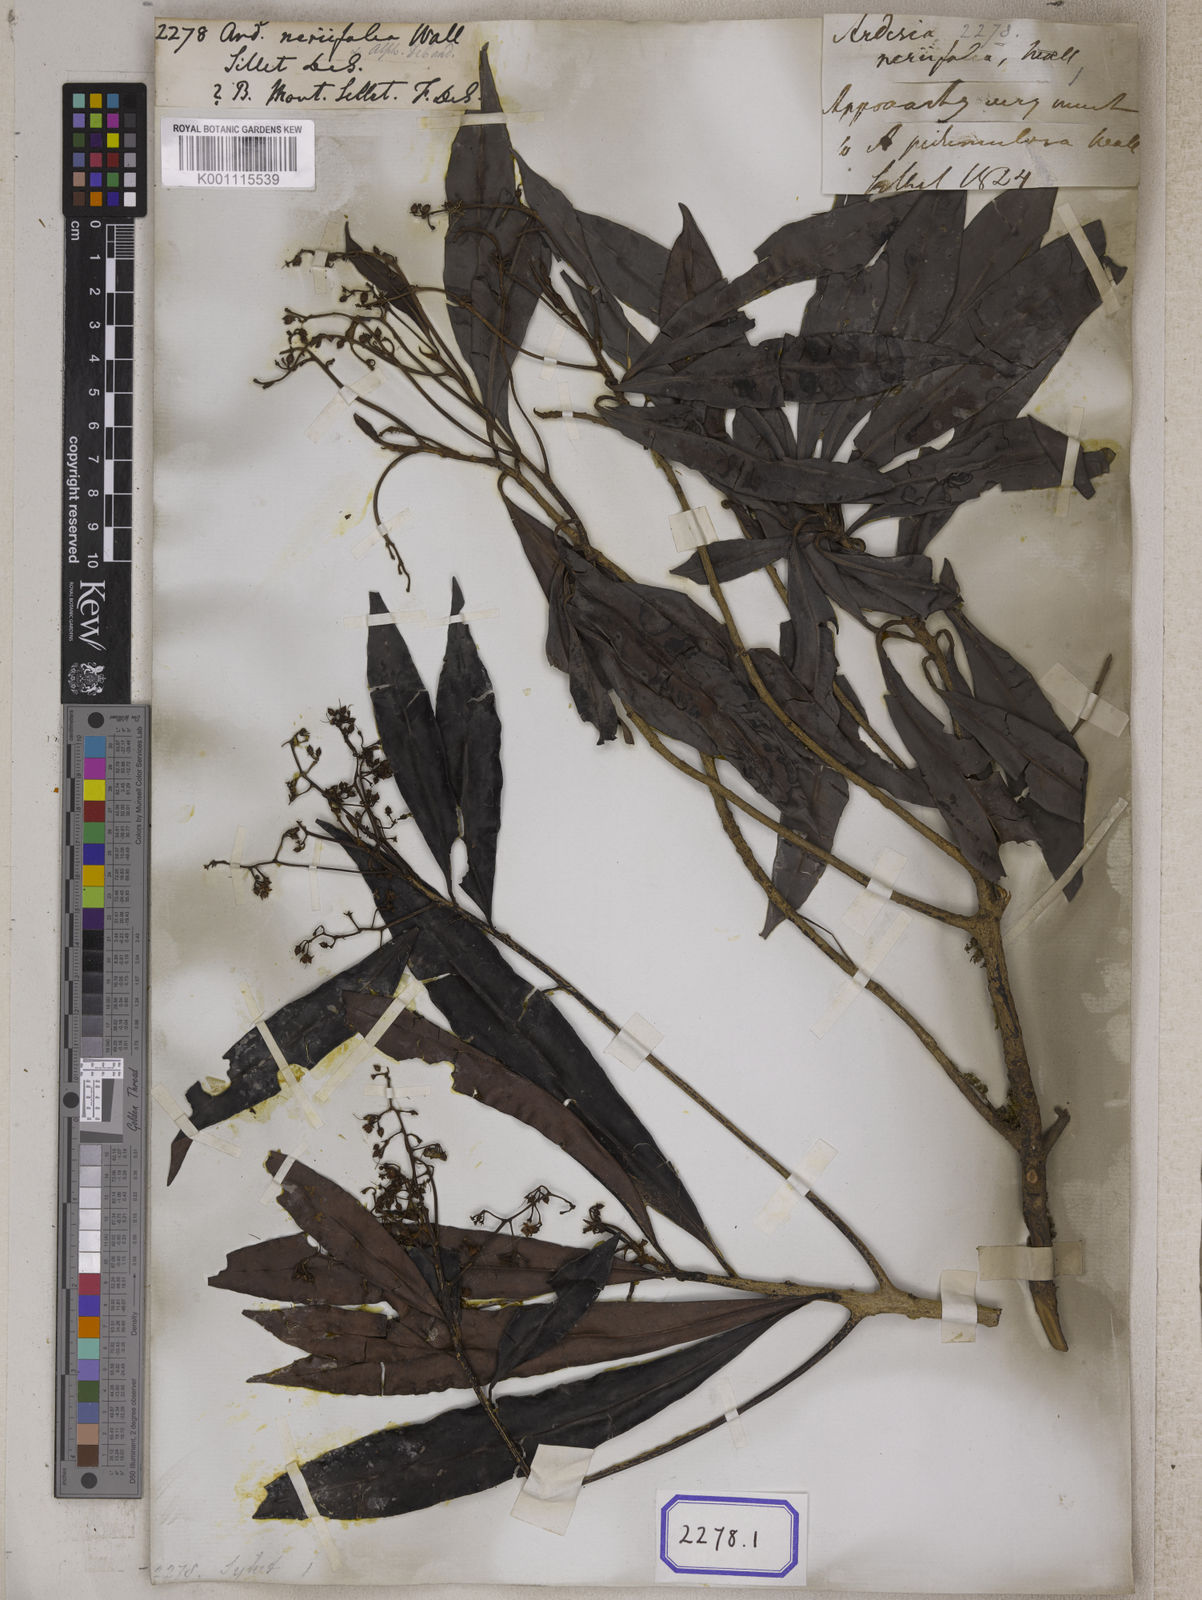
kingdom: Plantae
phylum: Tracheophyta
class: Magnoliopsida
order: Ericales
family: Primulaceae
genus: Ardisia
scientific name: Ardisia
